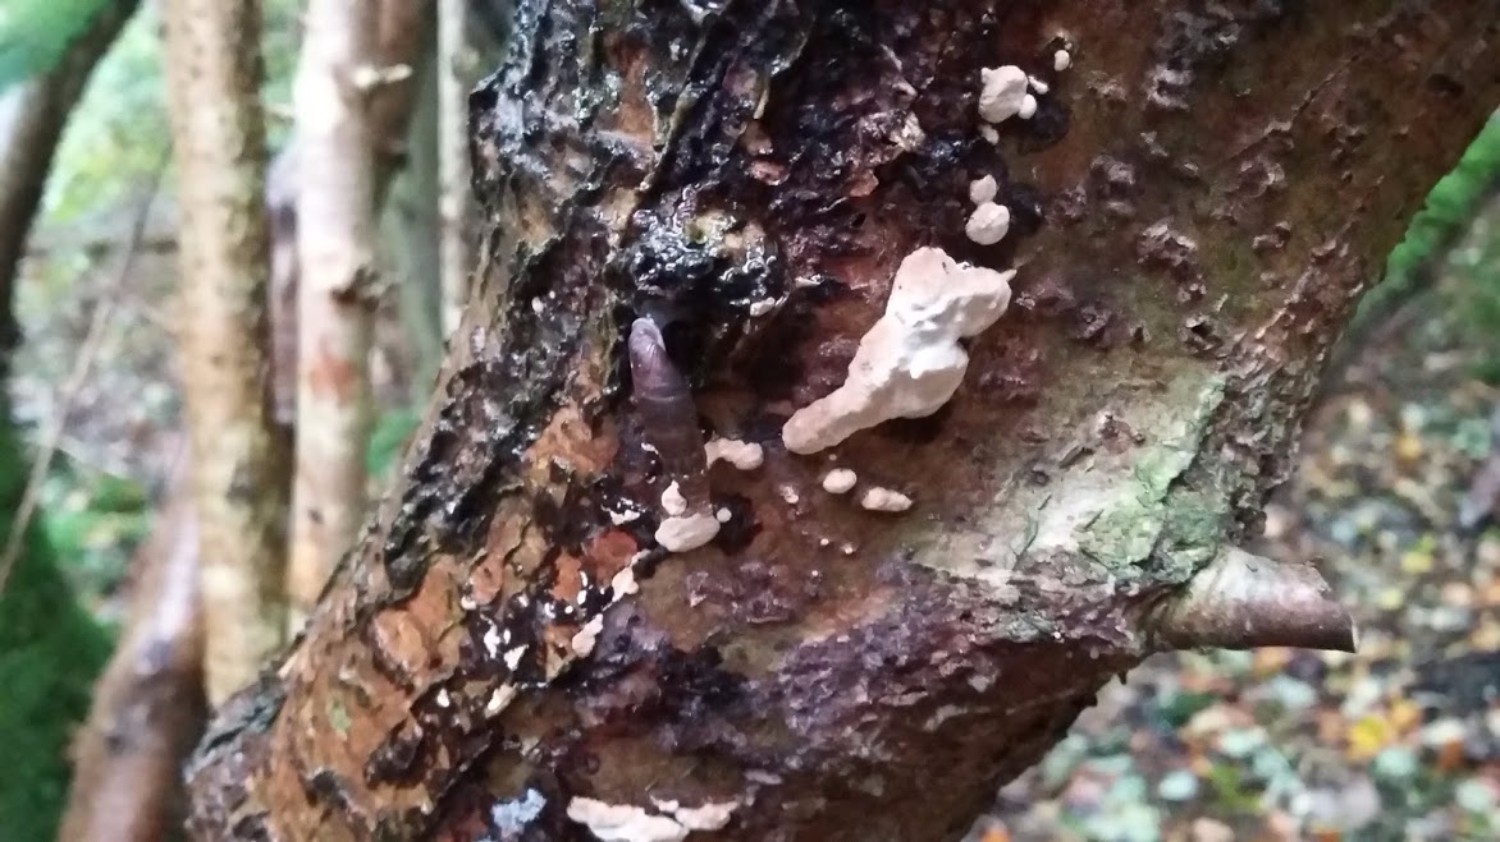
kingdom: Fungi
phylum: Basidiomycota
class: Agaricomycetes
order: Polyporales
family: Incrustoporiaceae
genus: Skeletocutis
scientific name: Skeletocutis nemoralis
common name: stor krystalporesvamp
